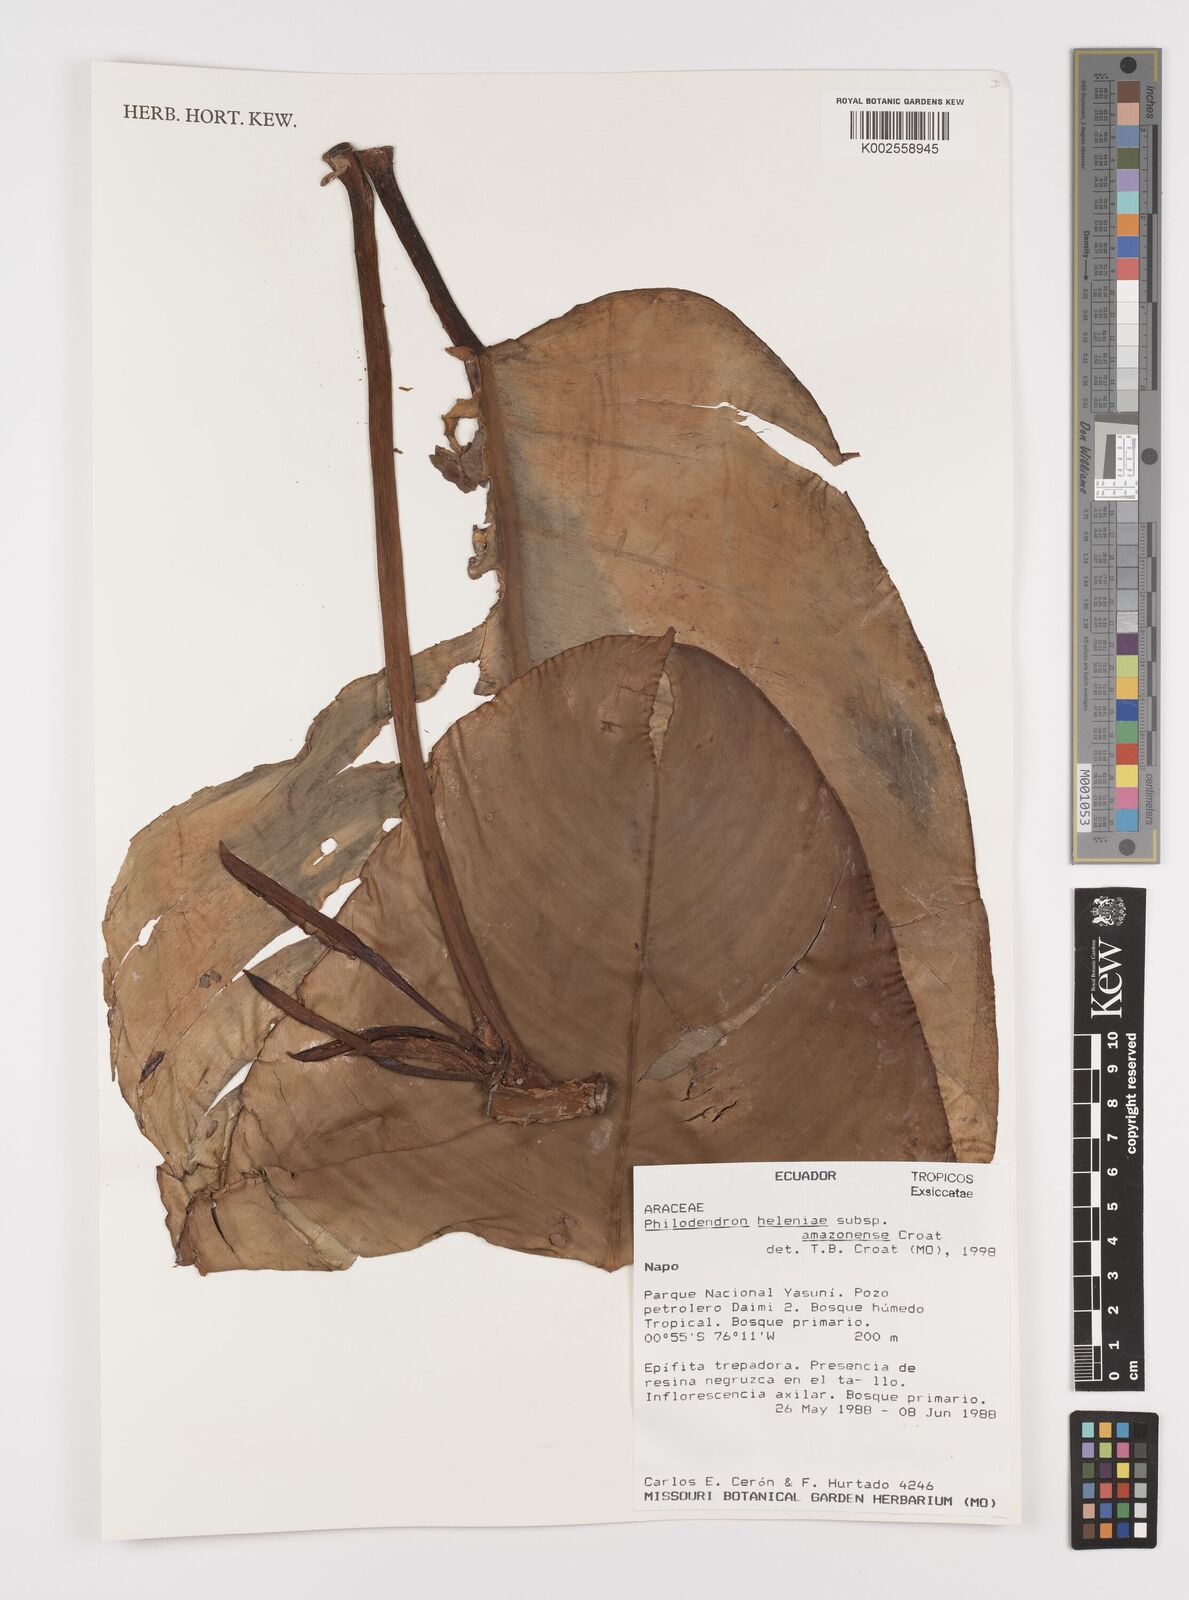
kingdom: Plantae
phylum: Tracheophyta
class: Liliopsida
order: Alismatales
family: Araceae
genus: Philodendron
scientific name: Philodendron heleniae
